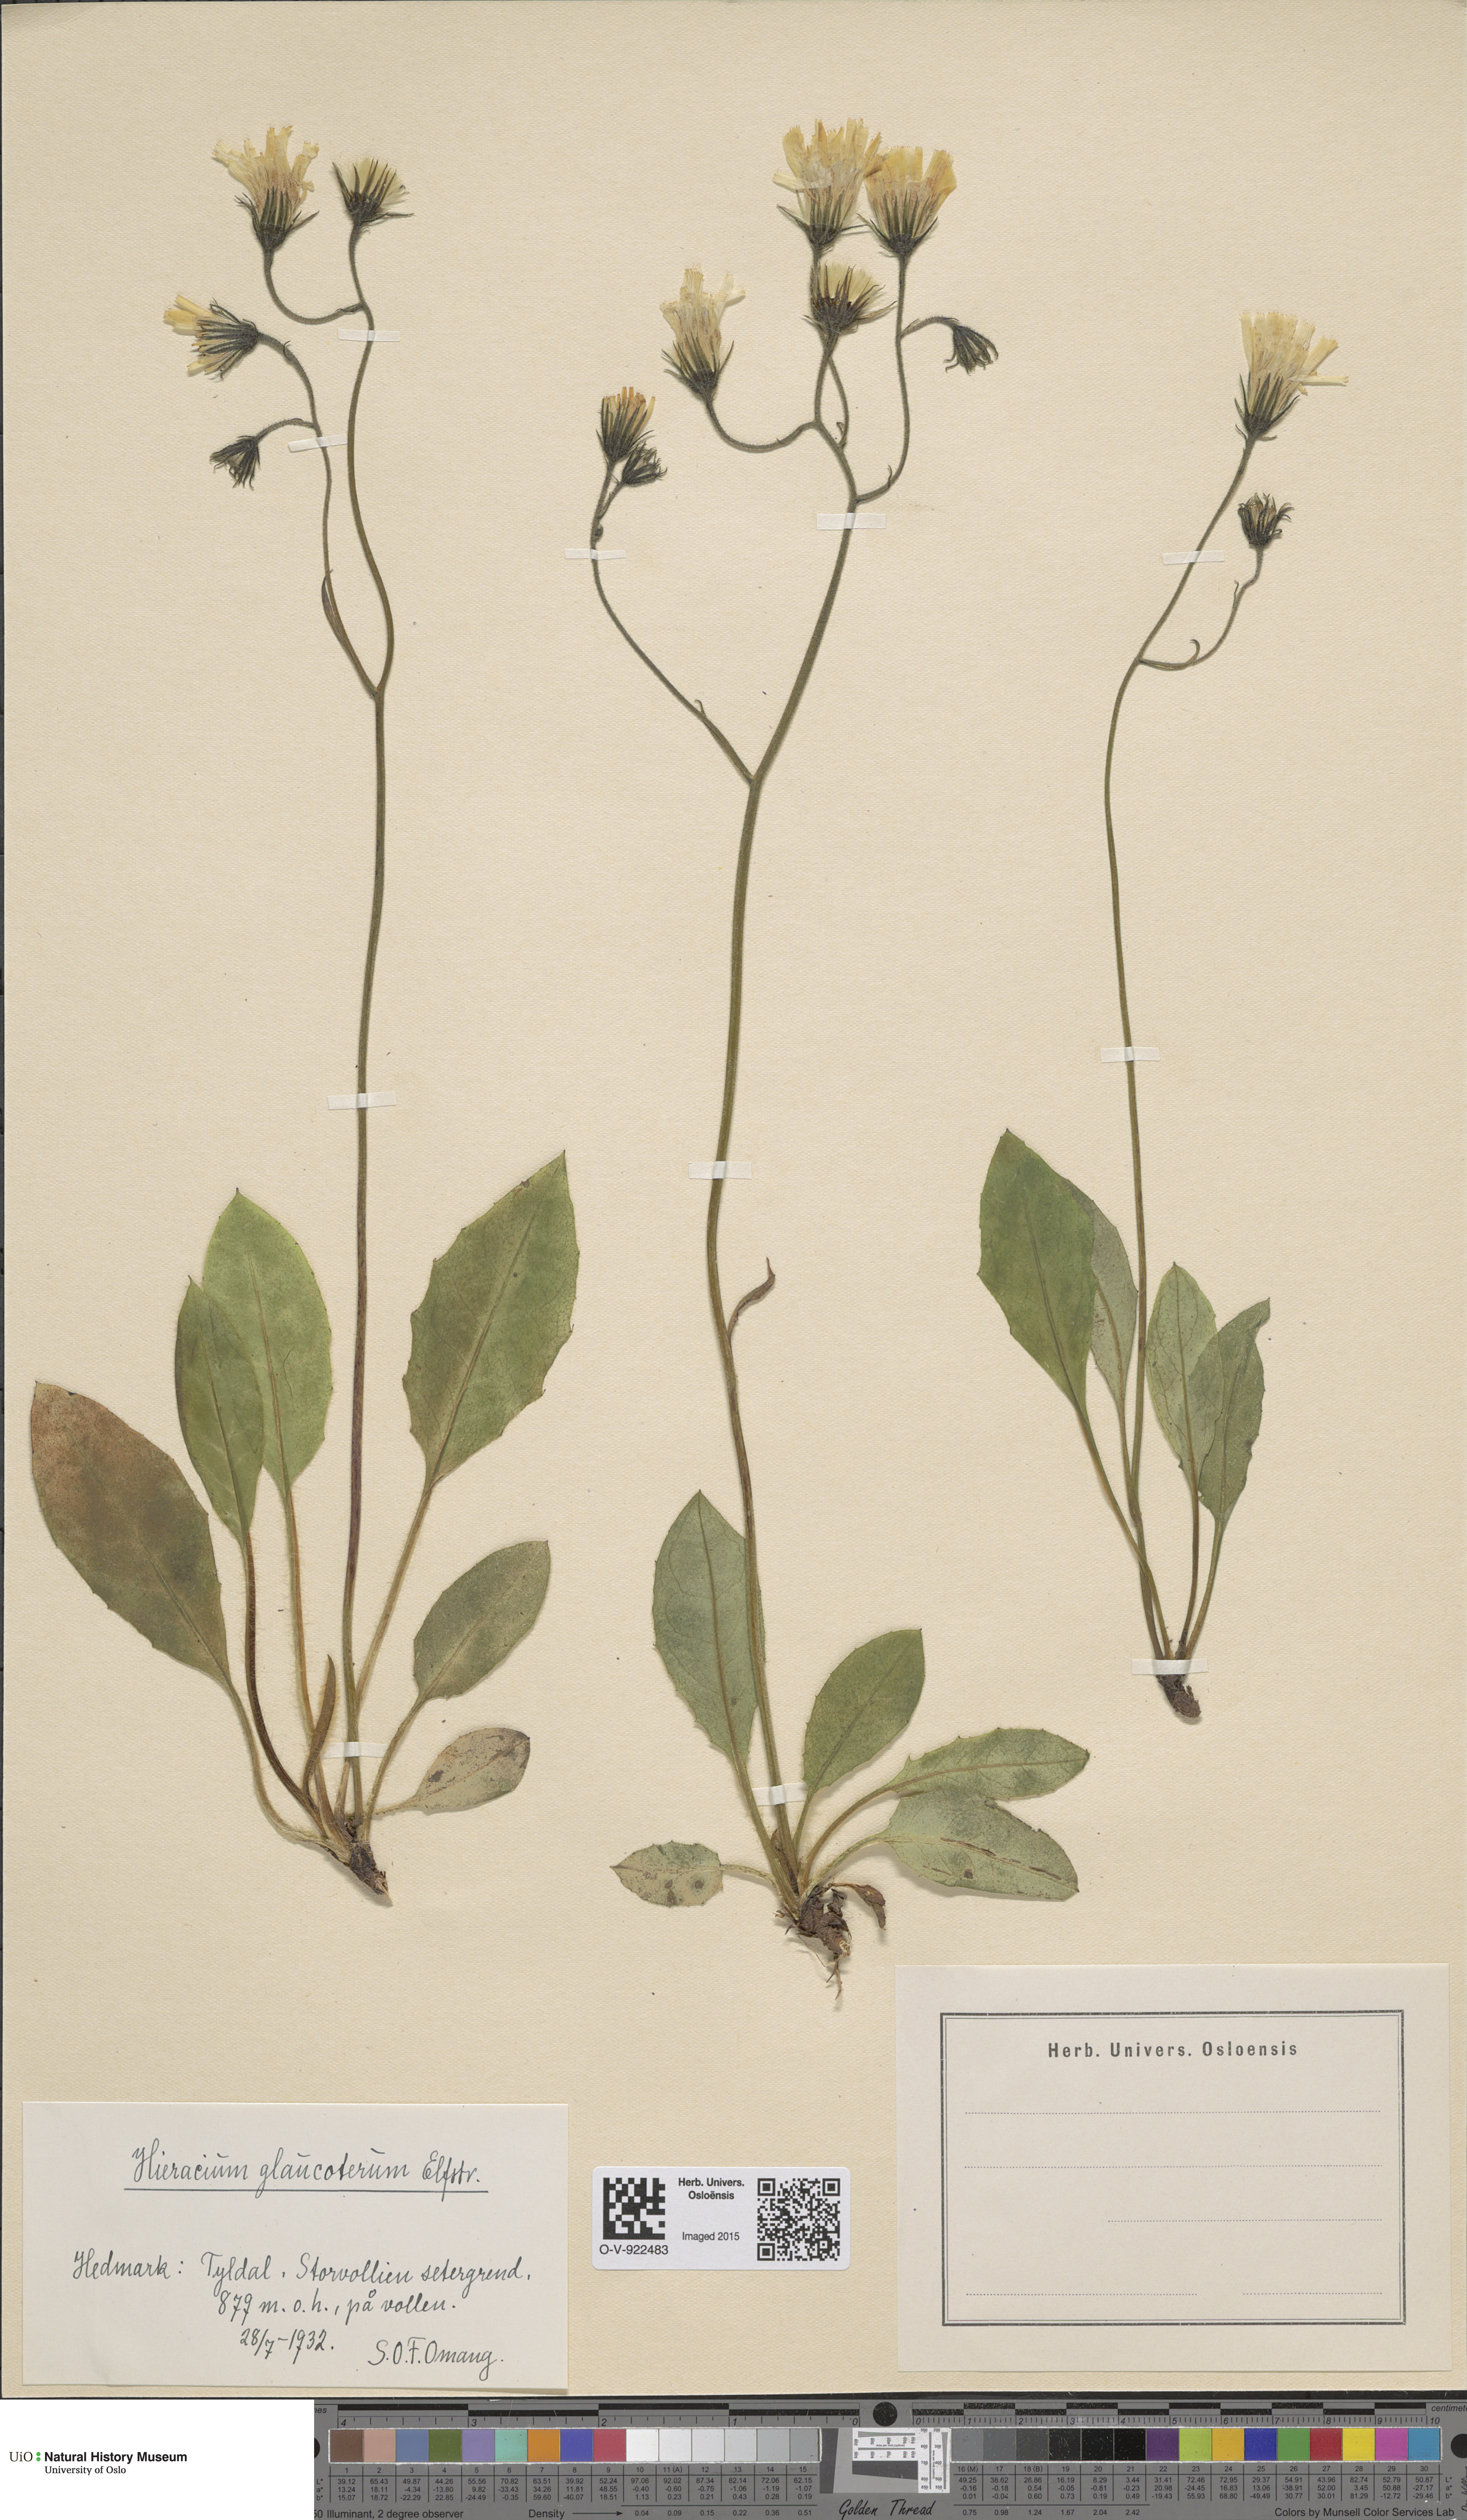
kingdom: Plantae
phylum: Tracheophyta
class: Magnoliopsida
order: Asterales
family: Asteraceae
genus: Hieracium
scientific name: Hieracium
